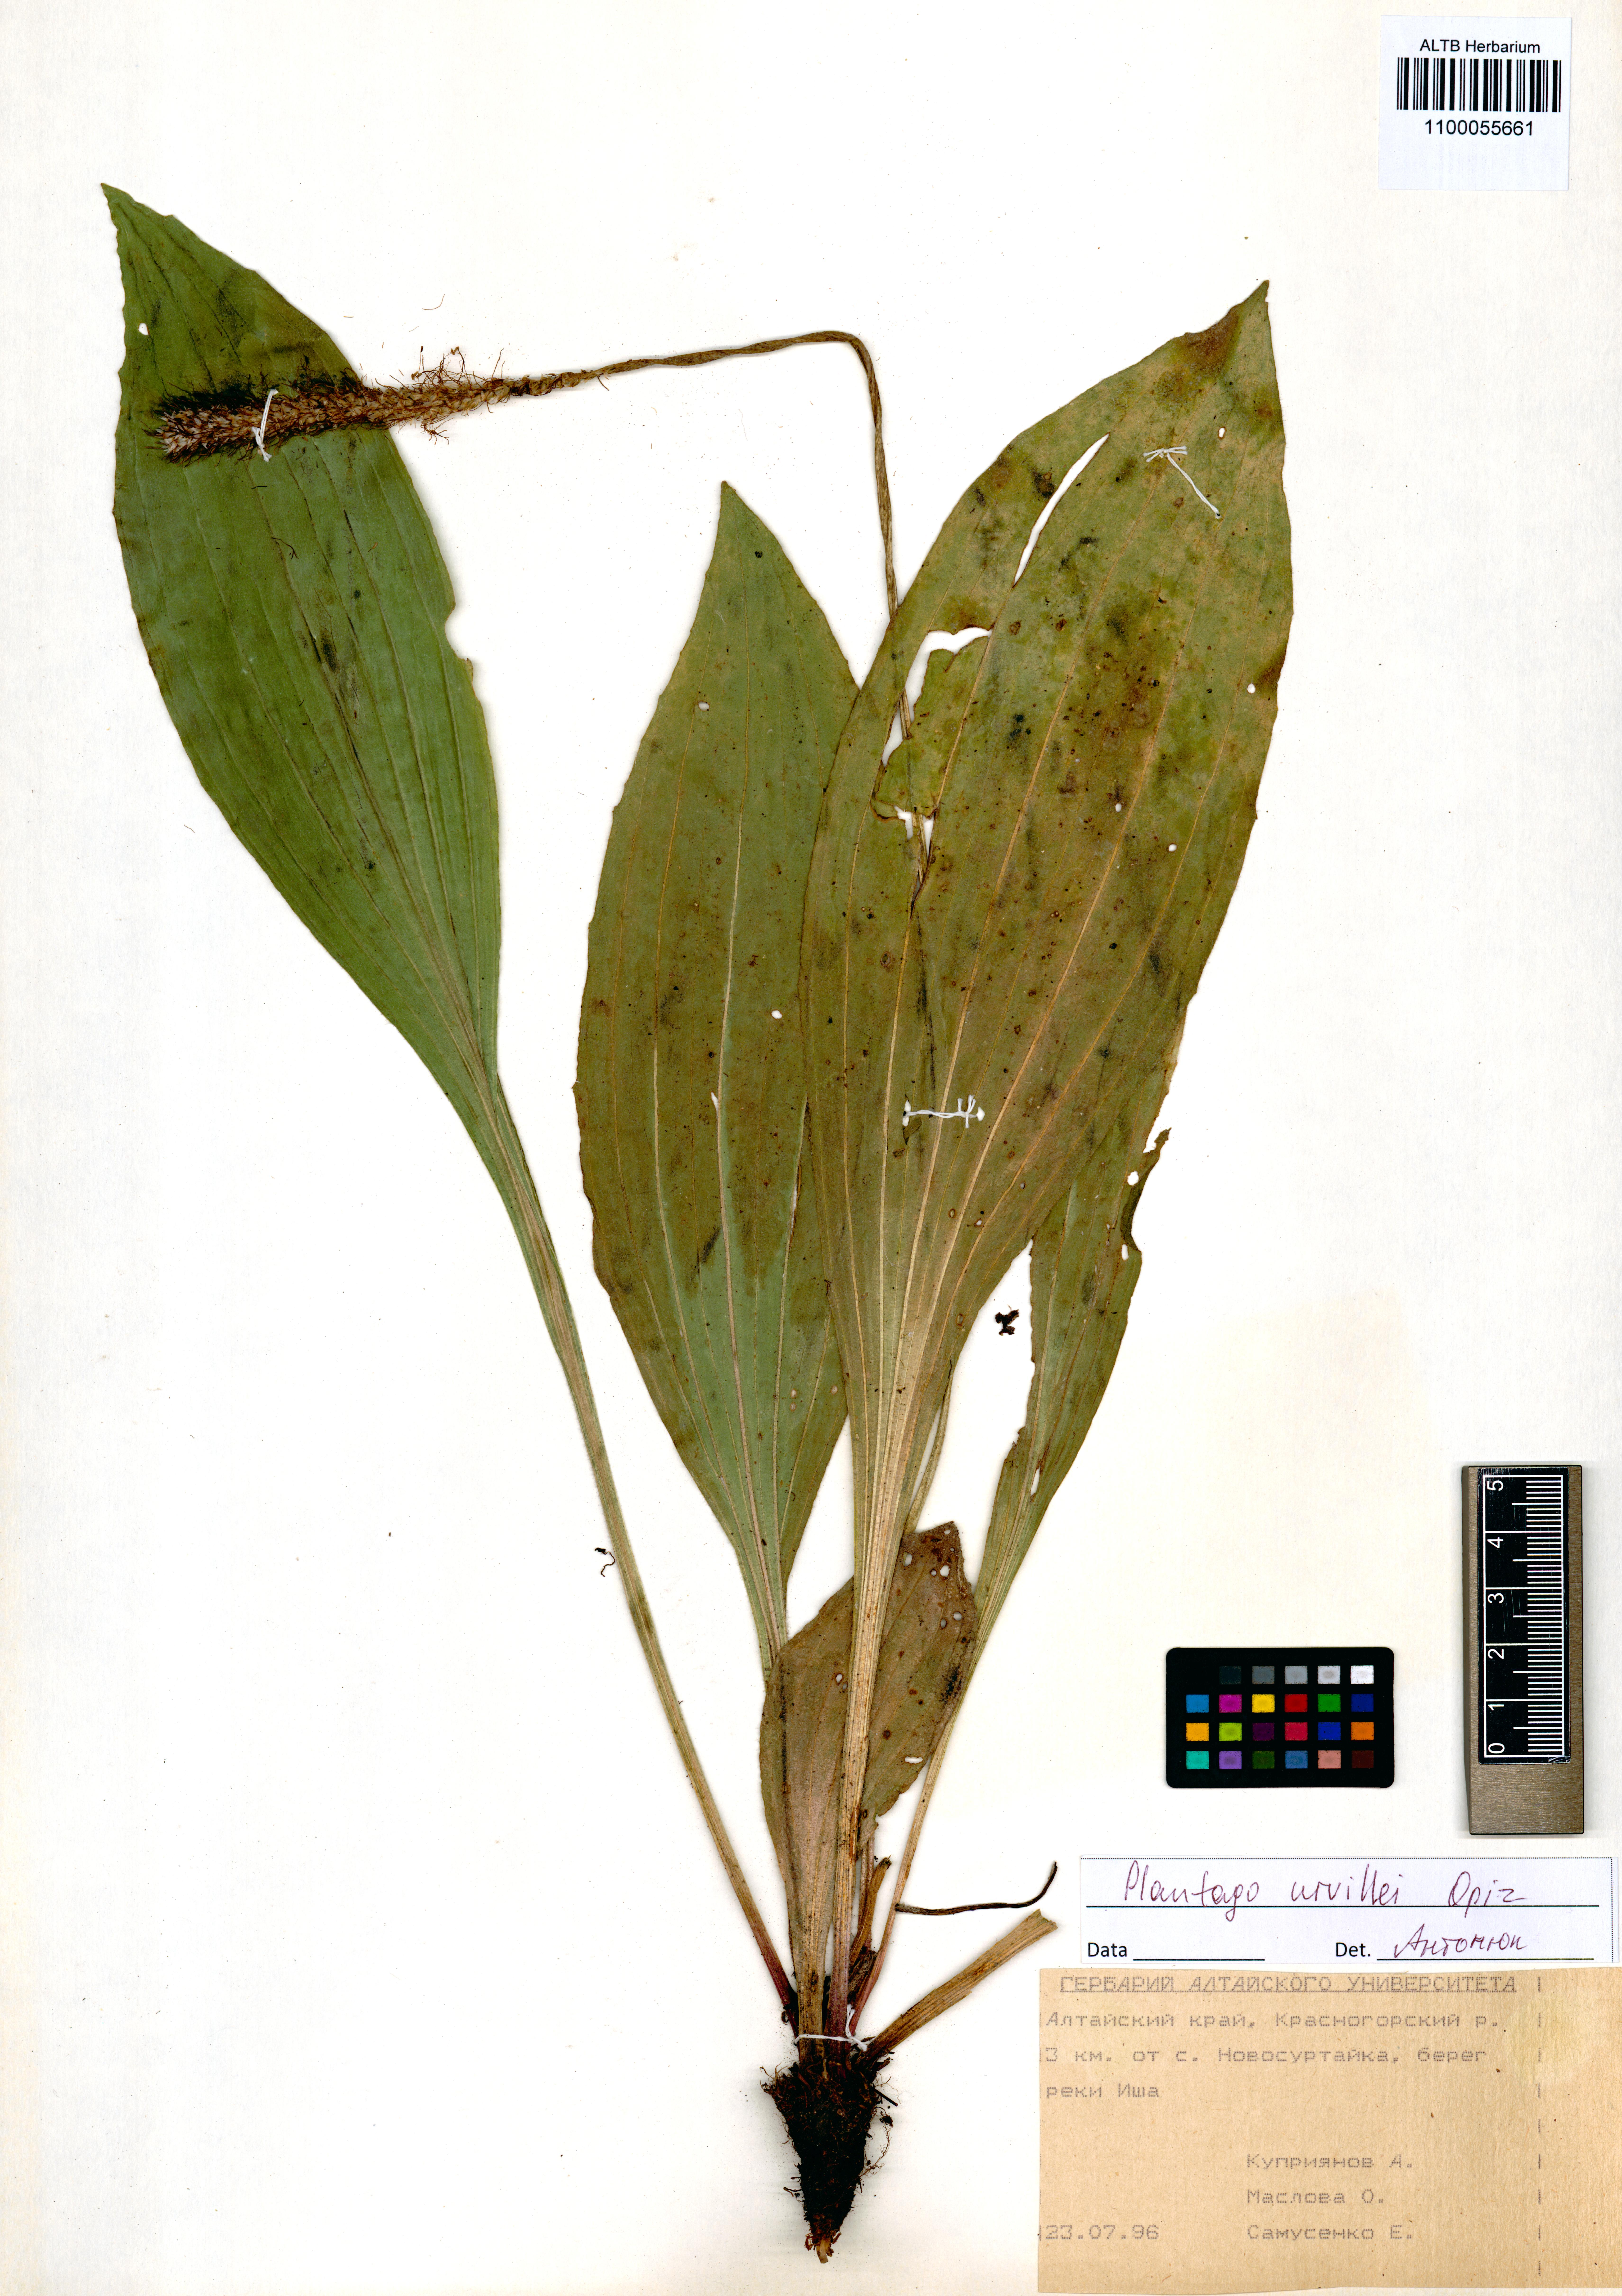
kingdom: Plantae
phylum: Tracheophyta
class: Magnoliopsida
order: Lamiales
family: Plantaginaceae
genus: Plantago
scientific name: Plantago urvillei
